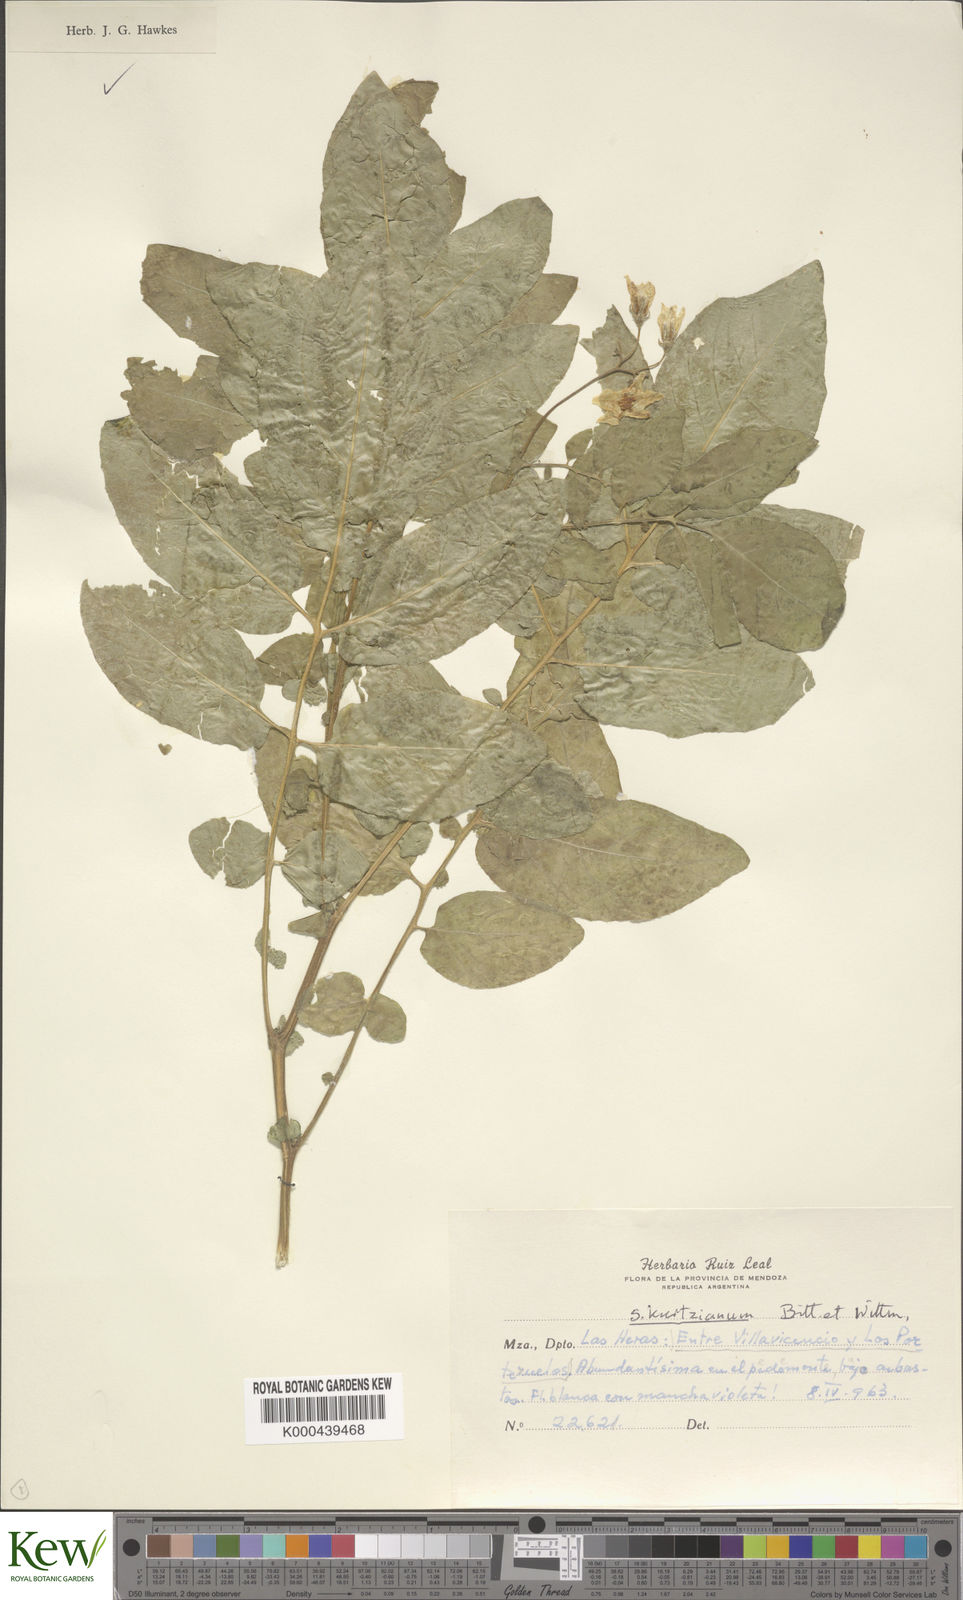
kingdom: Plantae
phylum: Tracheophyta
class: Magnoliopsida
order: Solanales
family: Solanaceae
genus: Solanum
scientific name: Solanum kurtzianum
